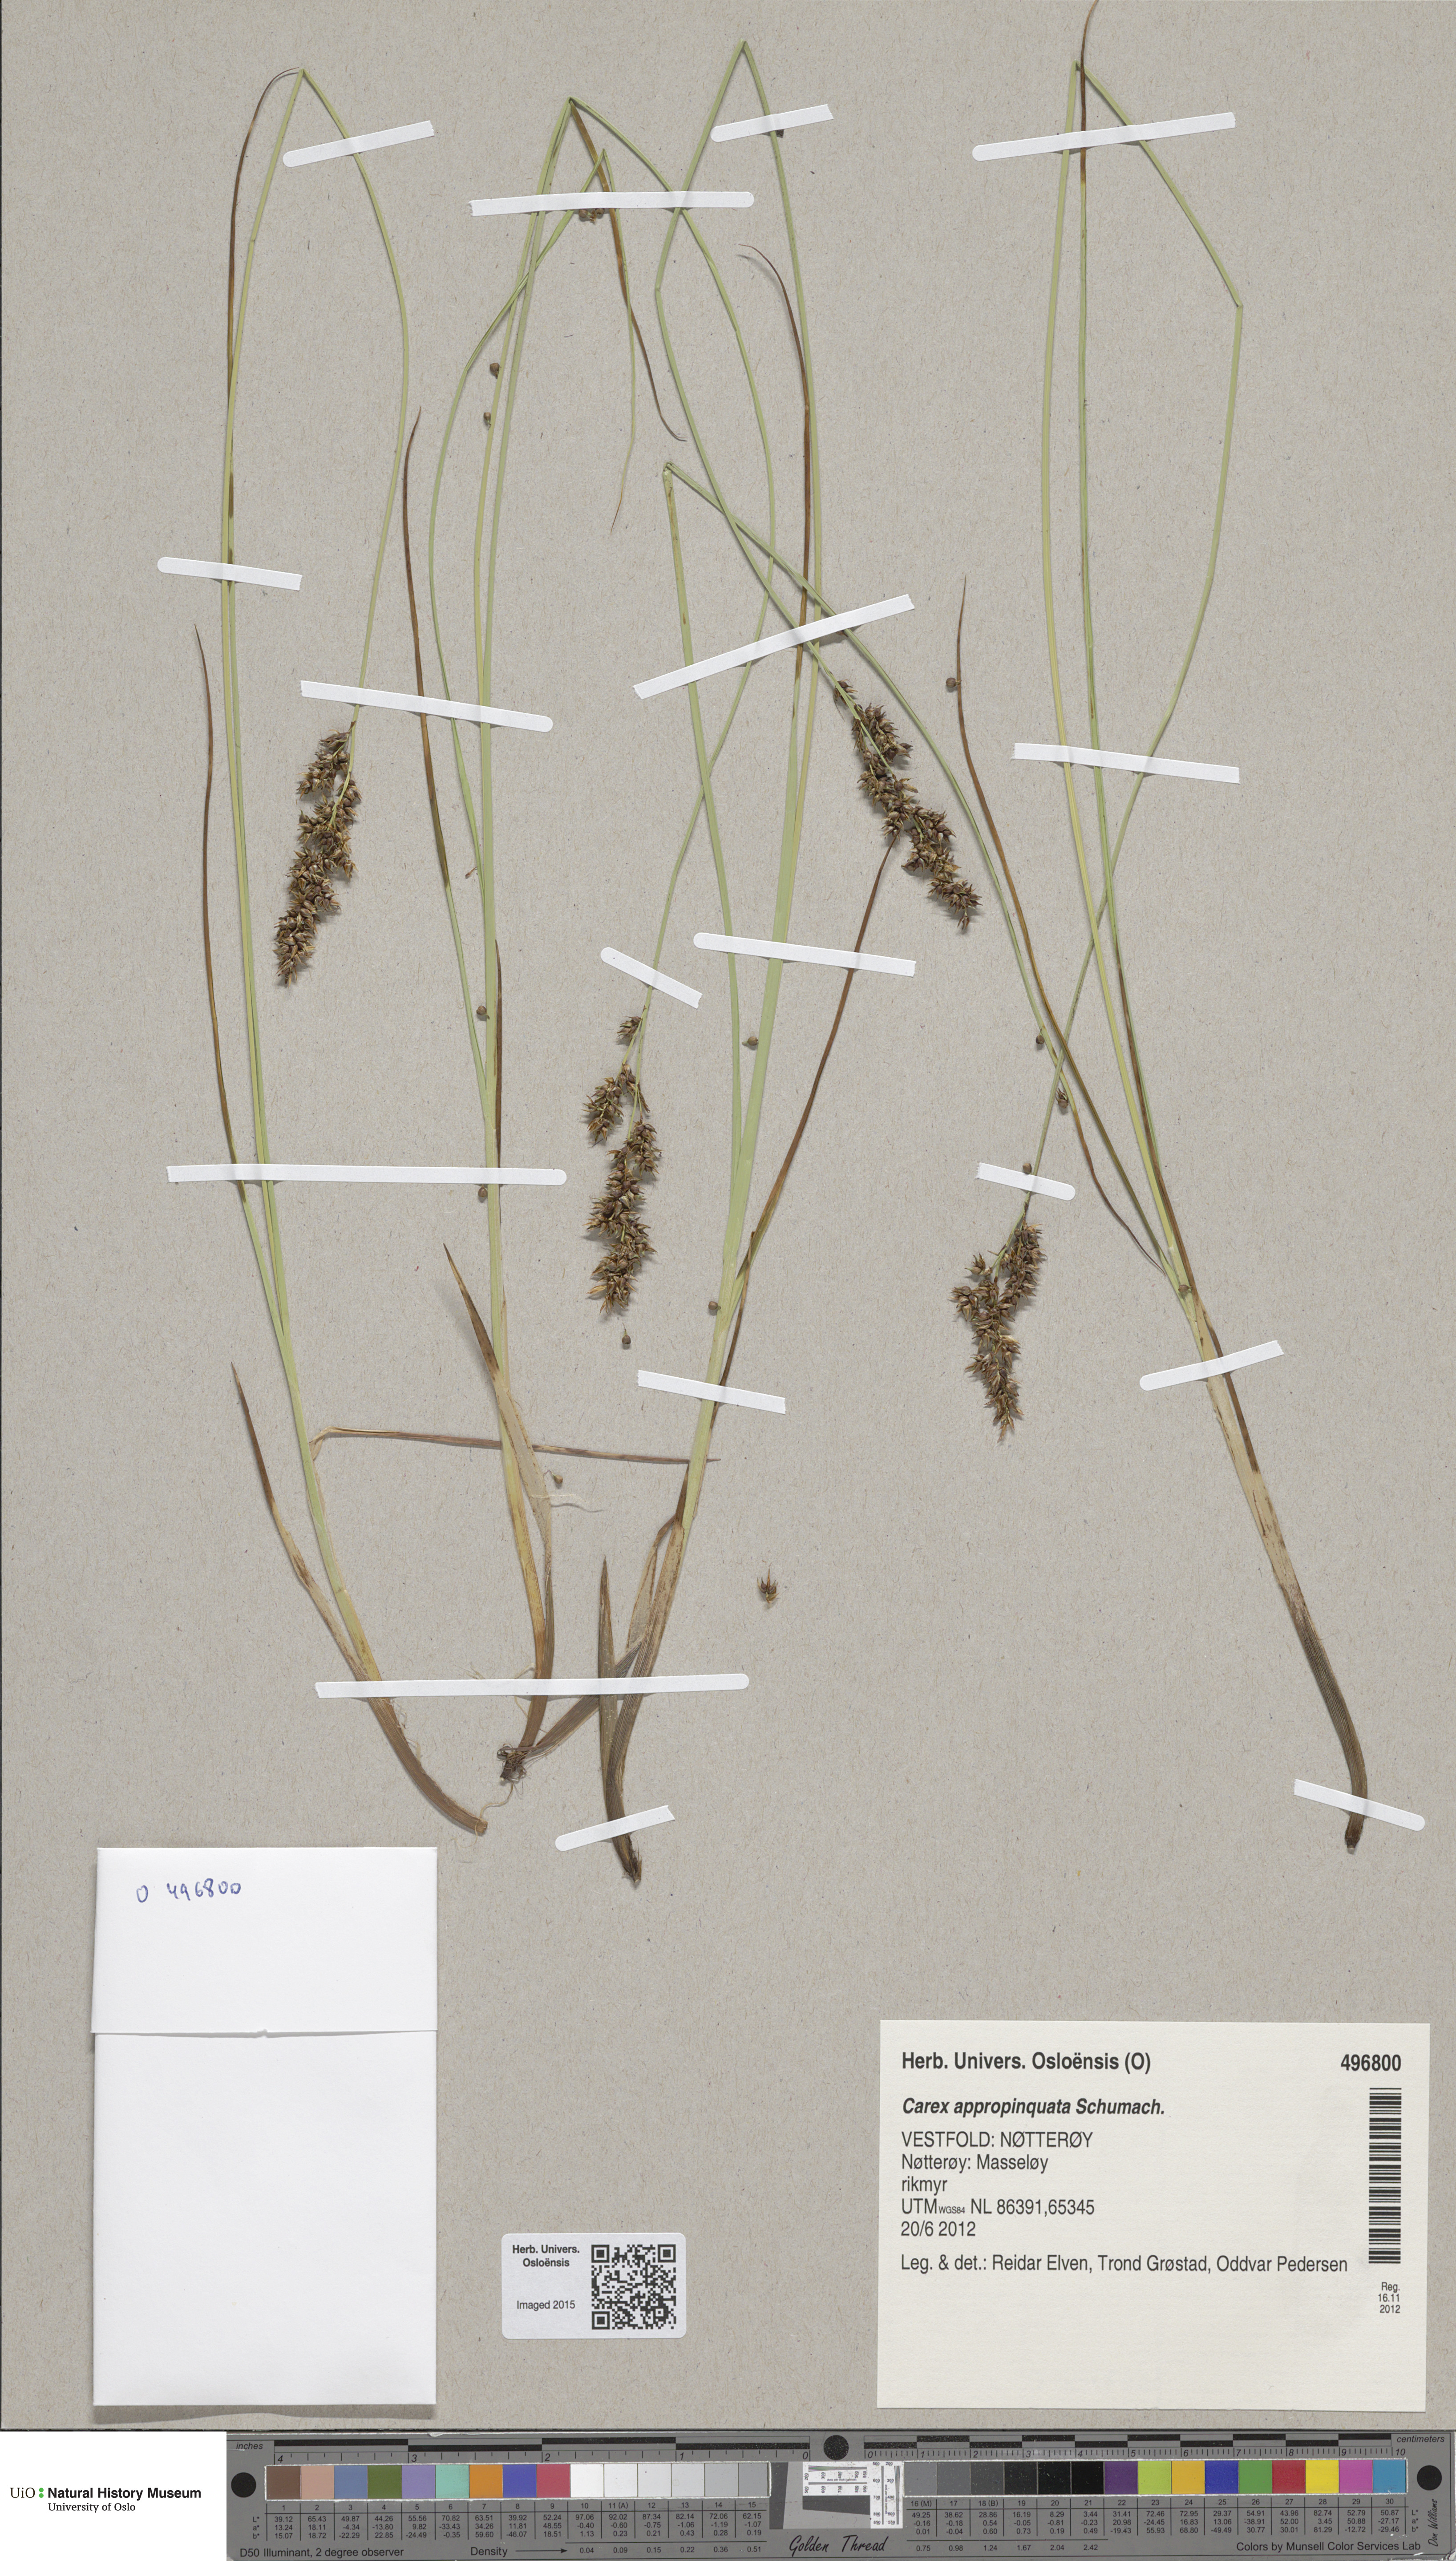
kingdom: Plantae
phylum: Tracheophyta
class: Liliopsida
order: Poales
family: Cyperaceae
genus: Carex
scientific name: Carex appropinquata
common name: Fibrous tussock-sedge
